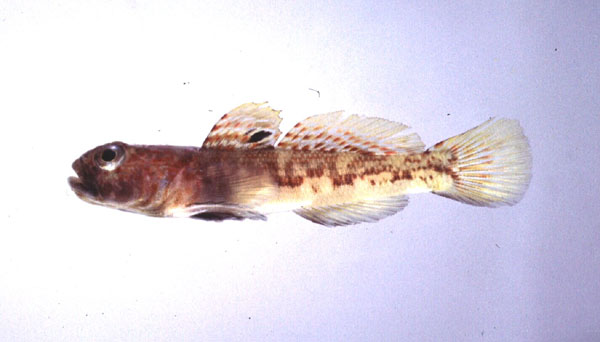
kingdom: Animalia
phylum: Chordata
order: Perciformes
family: Gobiidae
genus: Caffrogobius
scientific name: Caffrogobius agulhensis
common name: Agulhas goby
